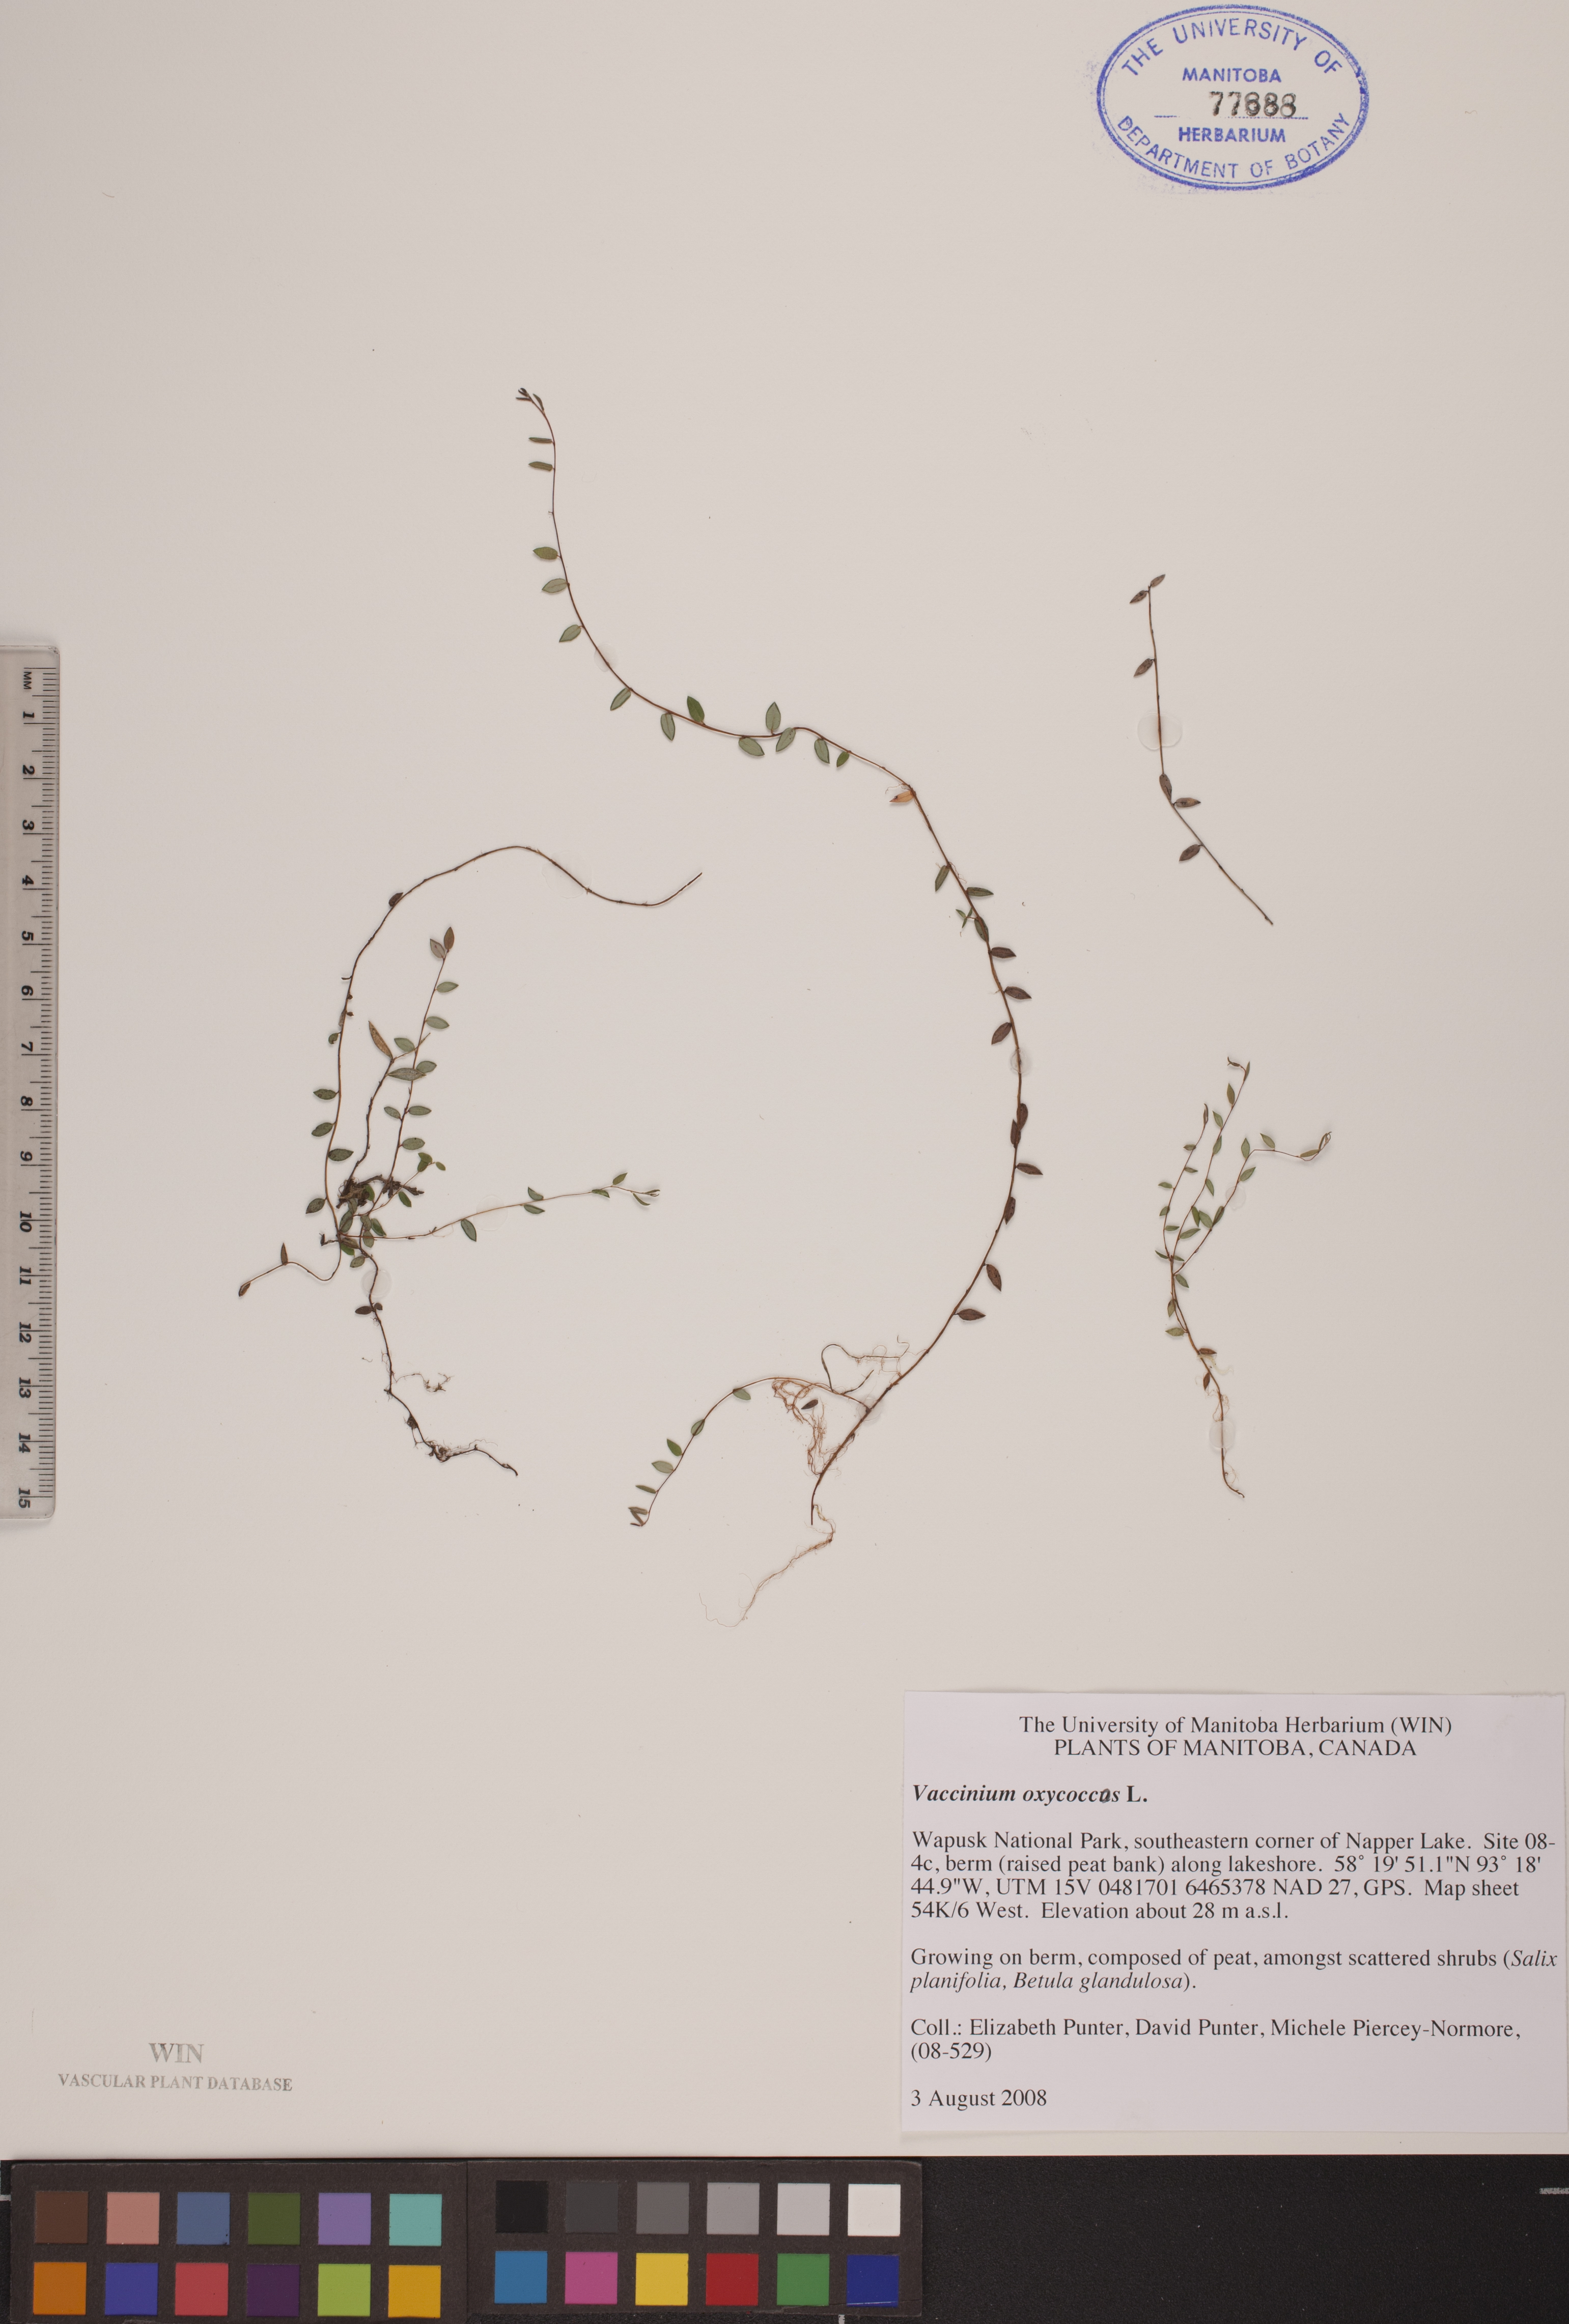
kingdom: Plantae
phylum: Tracheophyta
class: Magnoliopsida
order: Ericales
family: Ericaceae
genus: Vaccinium
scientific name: Vaccinium oxycoccos
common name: Cranberry
